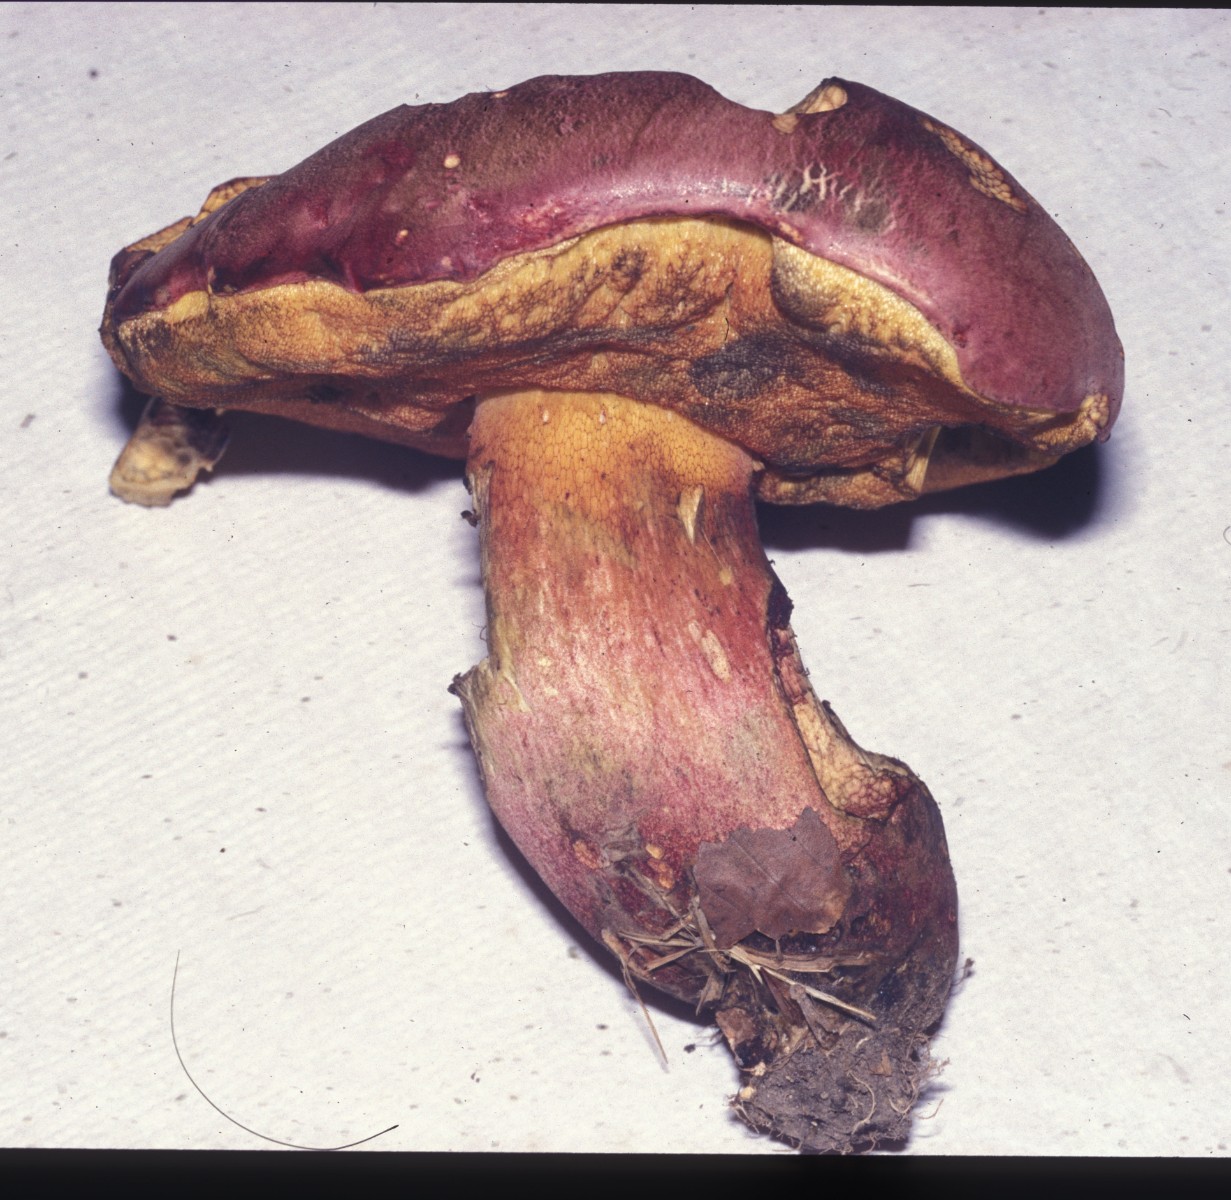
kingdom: Fungi
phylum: Basidiomycota
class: Agaricomycetes
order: Boletales
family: Boletaceae
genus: Rubroboletus
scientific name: Rubroboletus legaliae
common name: djævle-rørhat
